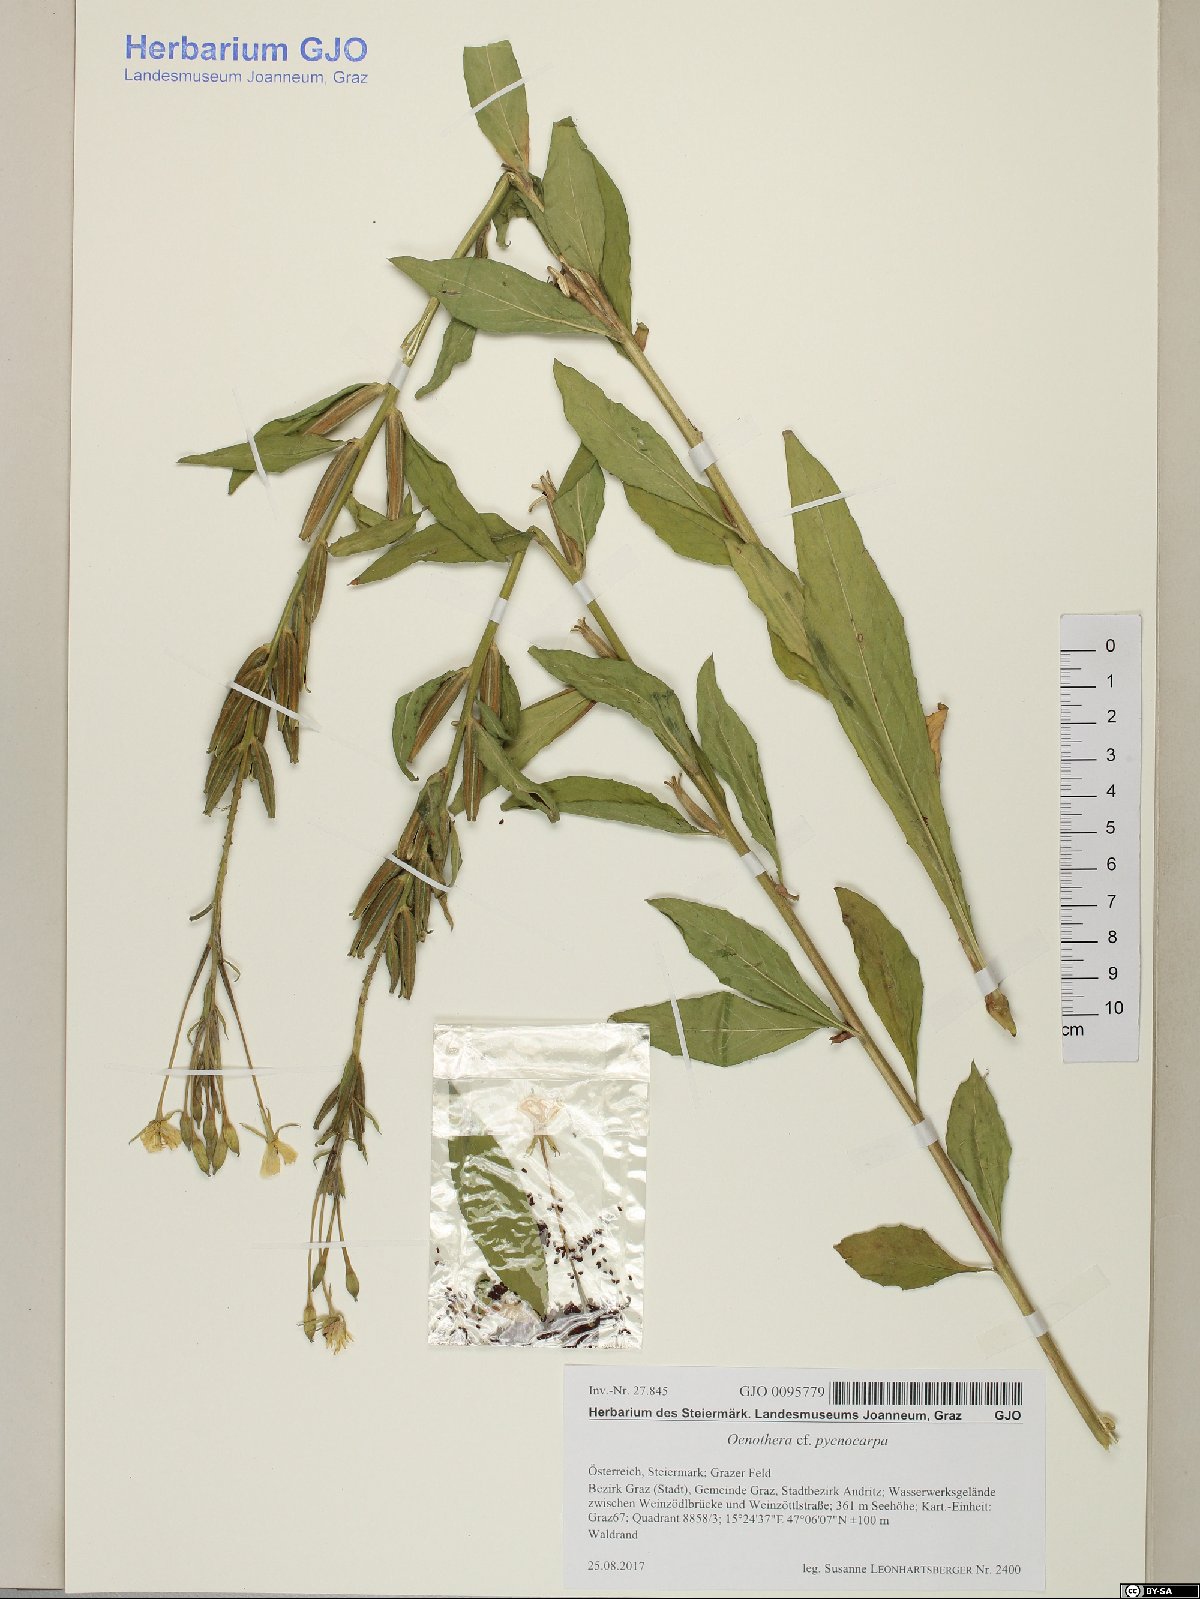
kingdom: Plantae
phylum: Tracheophyta
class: Magnoliopsida
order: Myrtales
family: Onagraceae
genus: Oenothera
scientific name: Oenothera biennis
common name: Common evening-primrose
